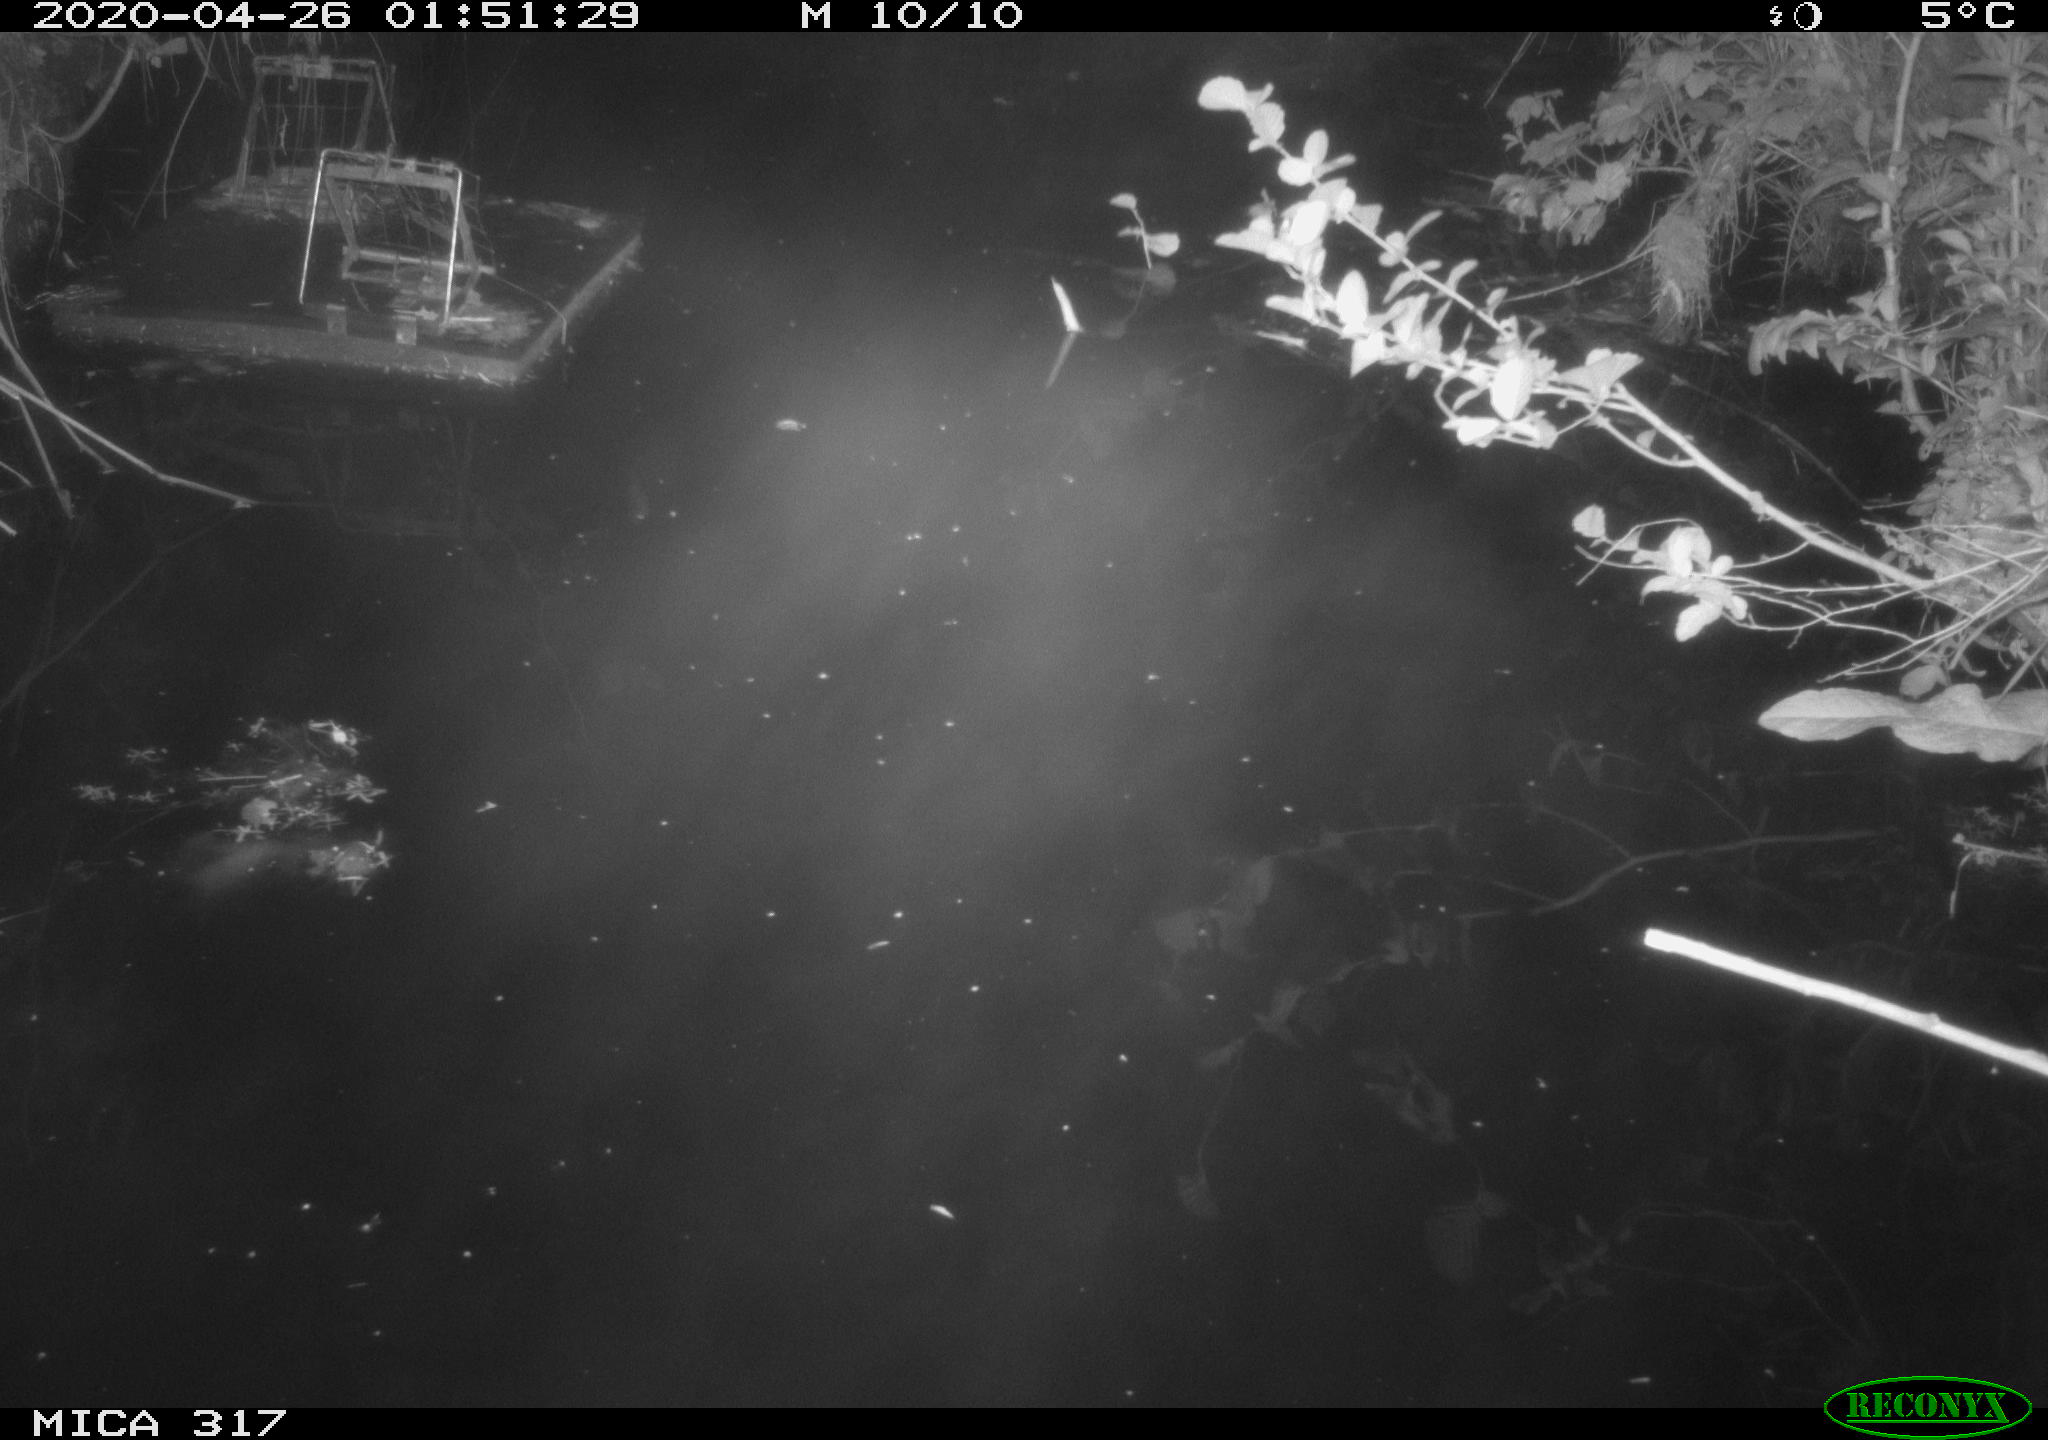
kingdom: Animalia
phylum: Chordata
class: Aves
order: Anseriformes
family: Anatidae
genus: Anas
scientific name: Anas platyrhynchos
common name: Mallard
